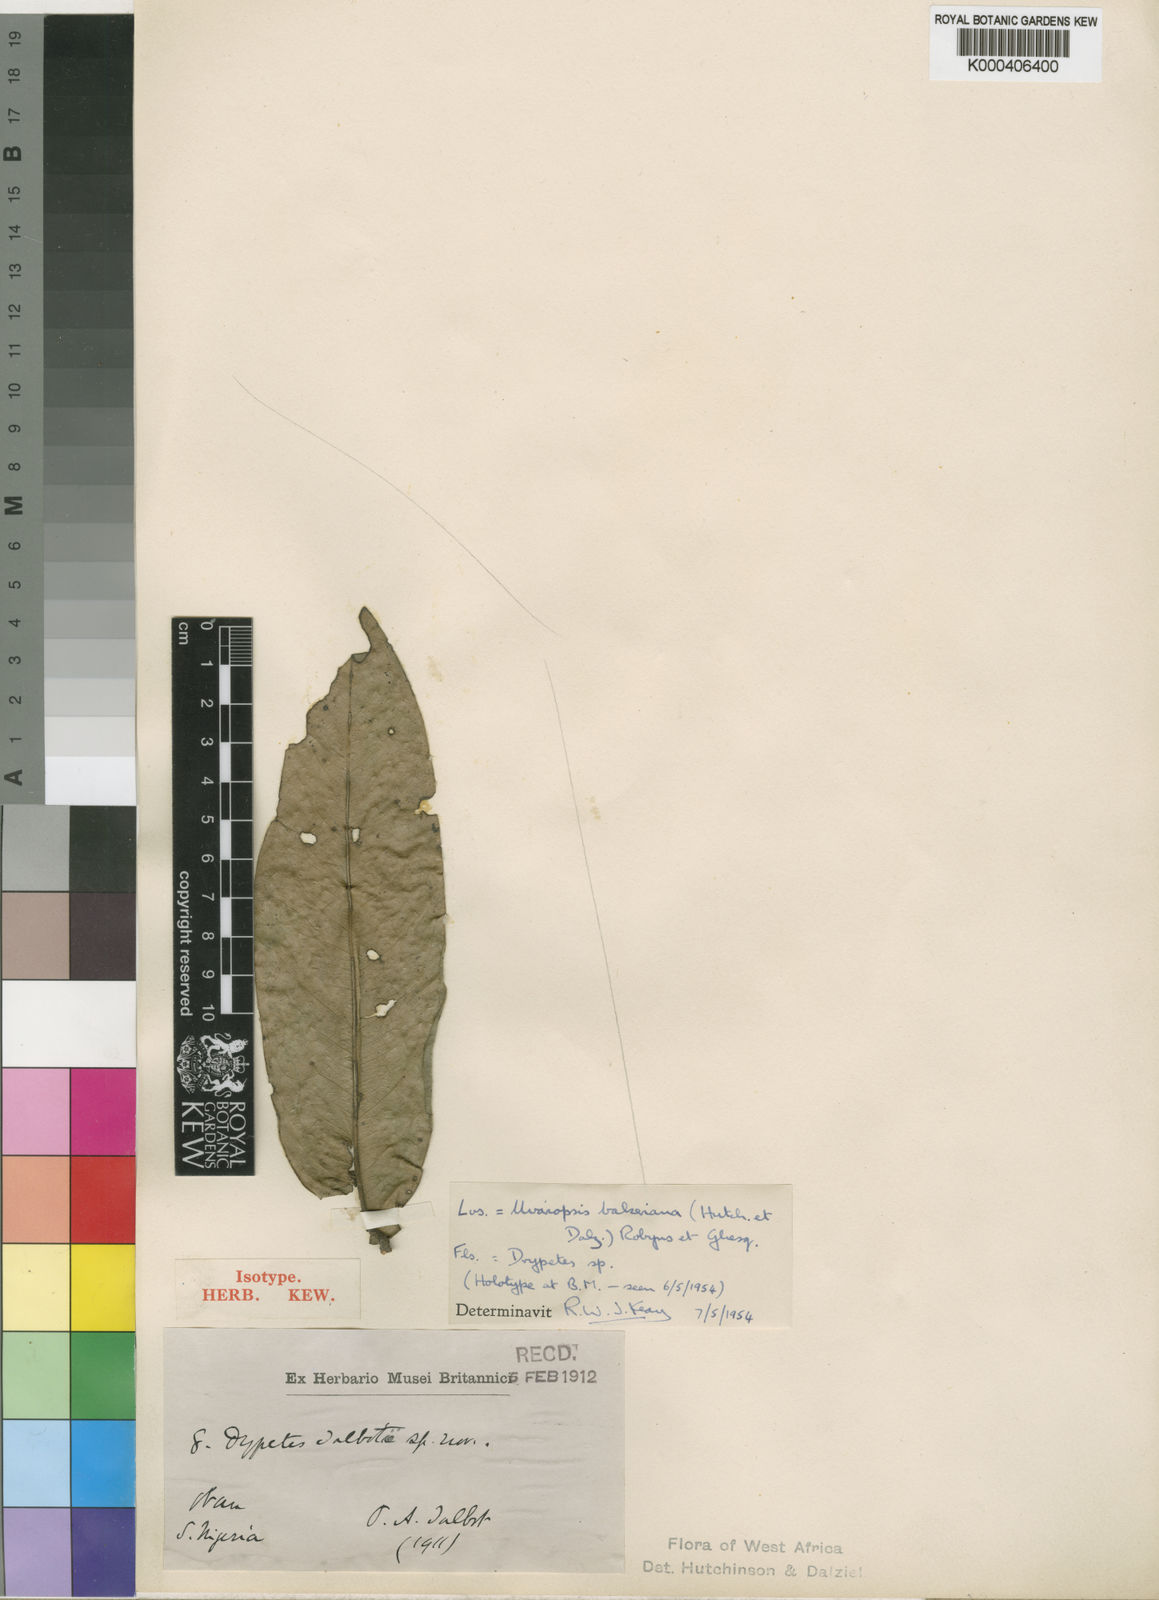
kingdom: Plantae
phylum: Tracheophyta
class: Magnoliopsida
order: Magnoliales
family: Annonaceae
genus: Uvariopsis
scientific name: Uvariopsis bakeriana
